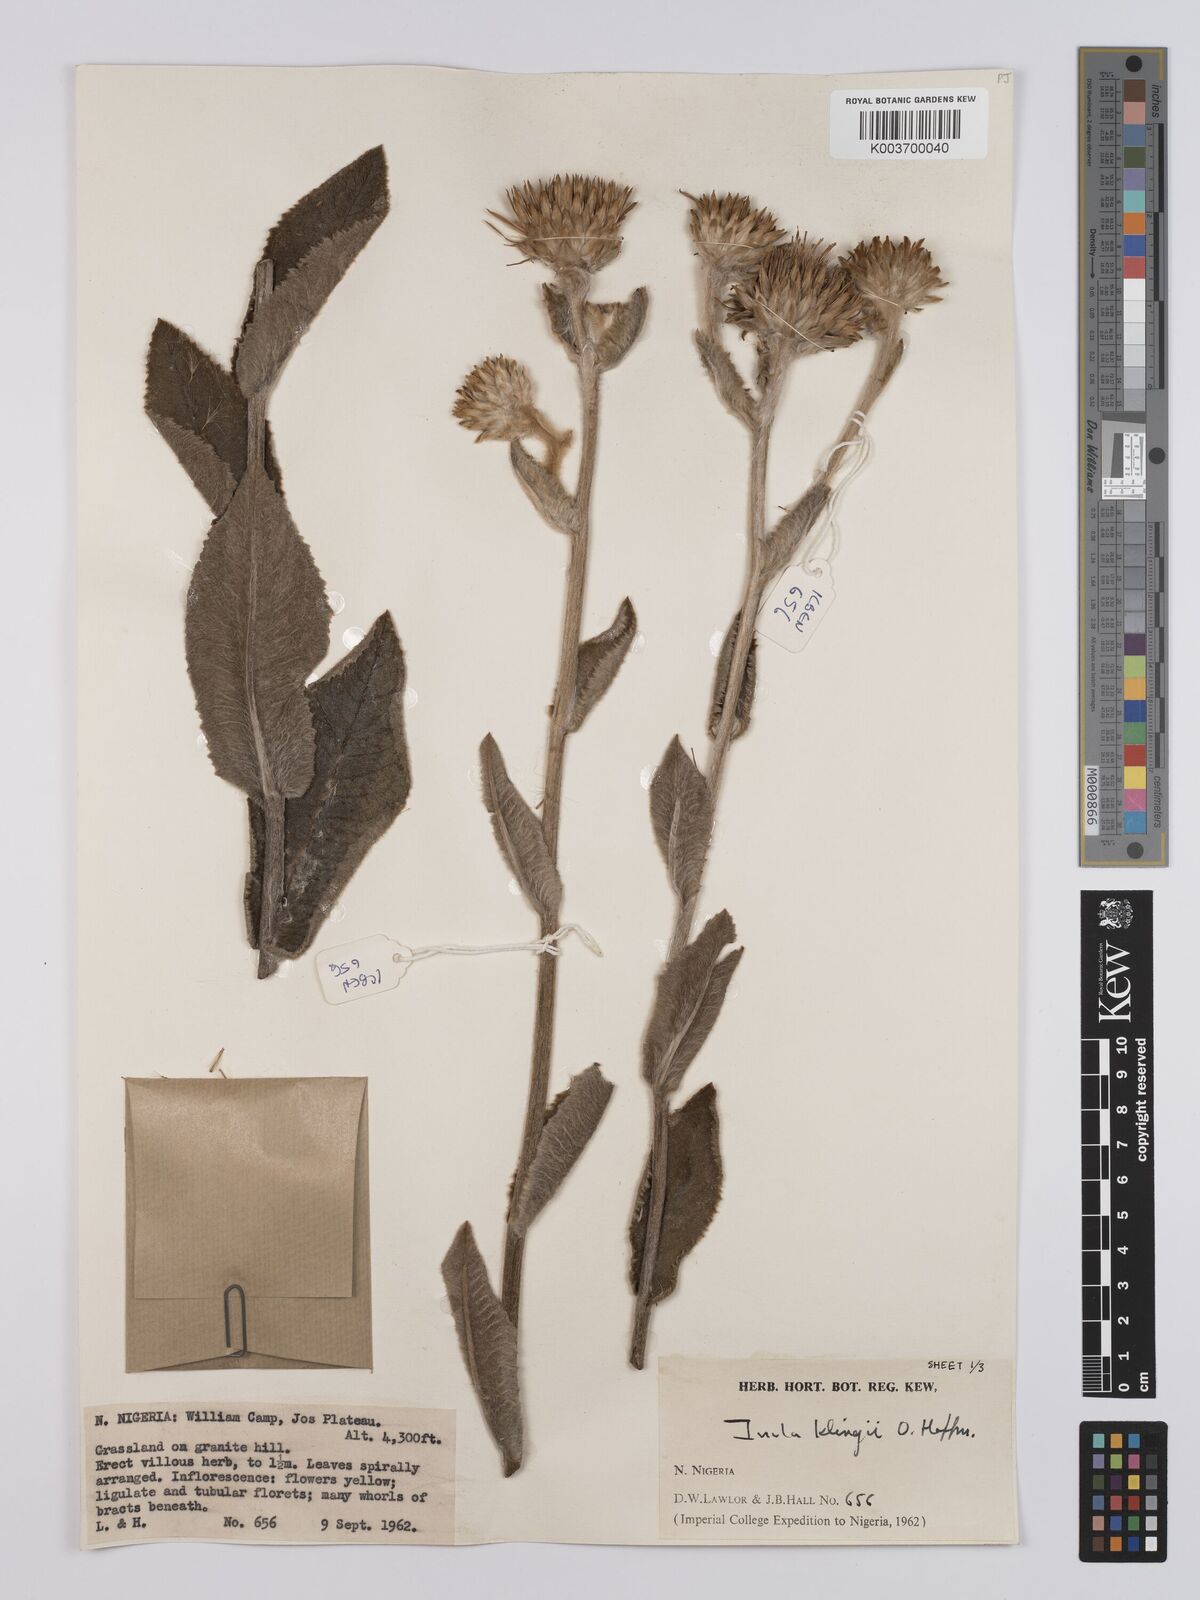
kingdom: Plantae
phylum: Tracheophyta
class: Magnoliopsida
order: Asterales
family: Asteraceae
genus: Inula
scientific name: Inula klingii
